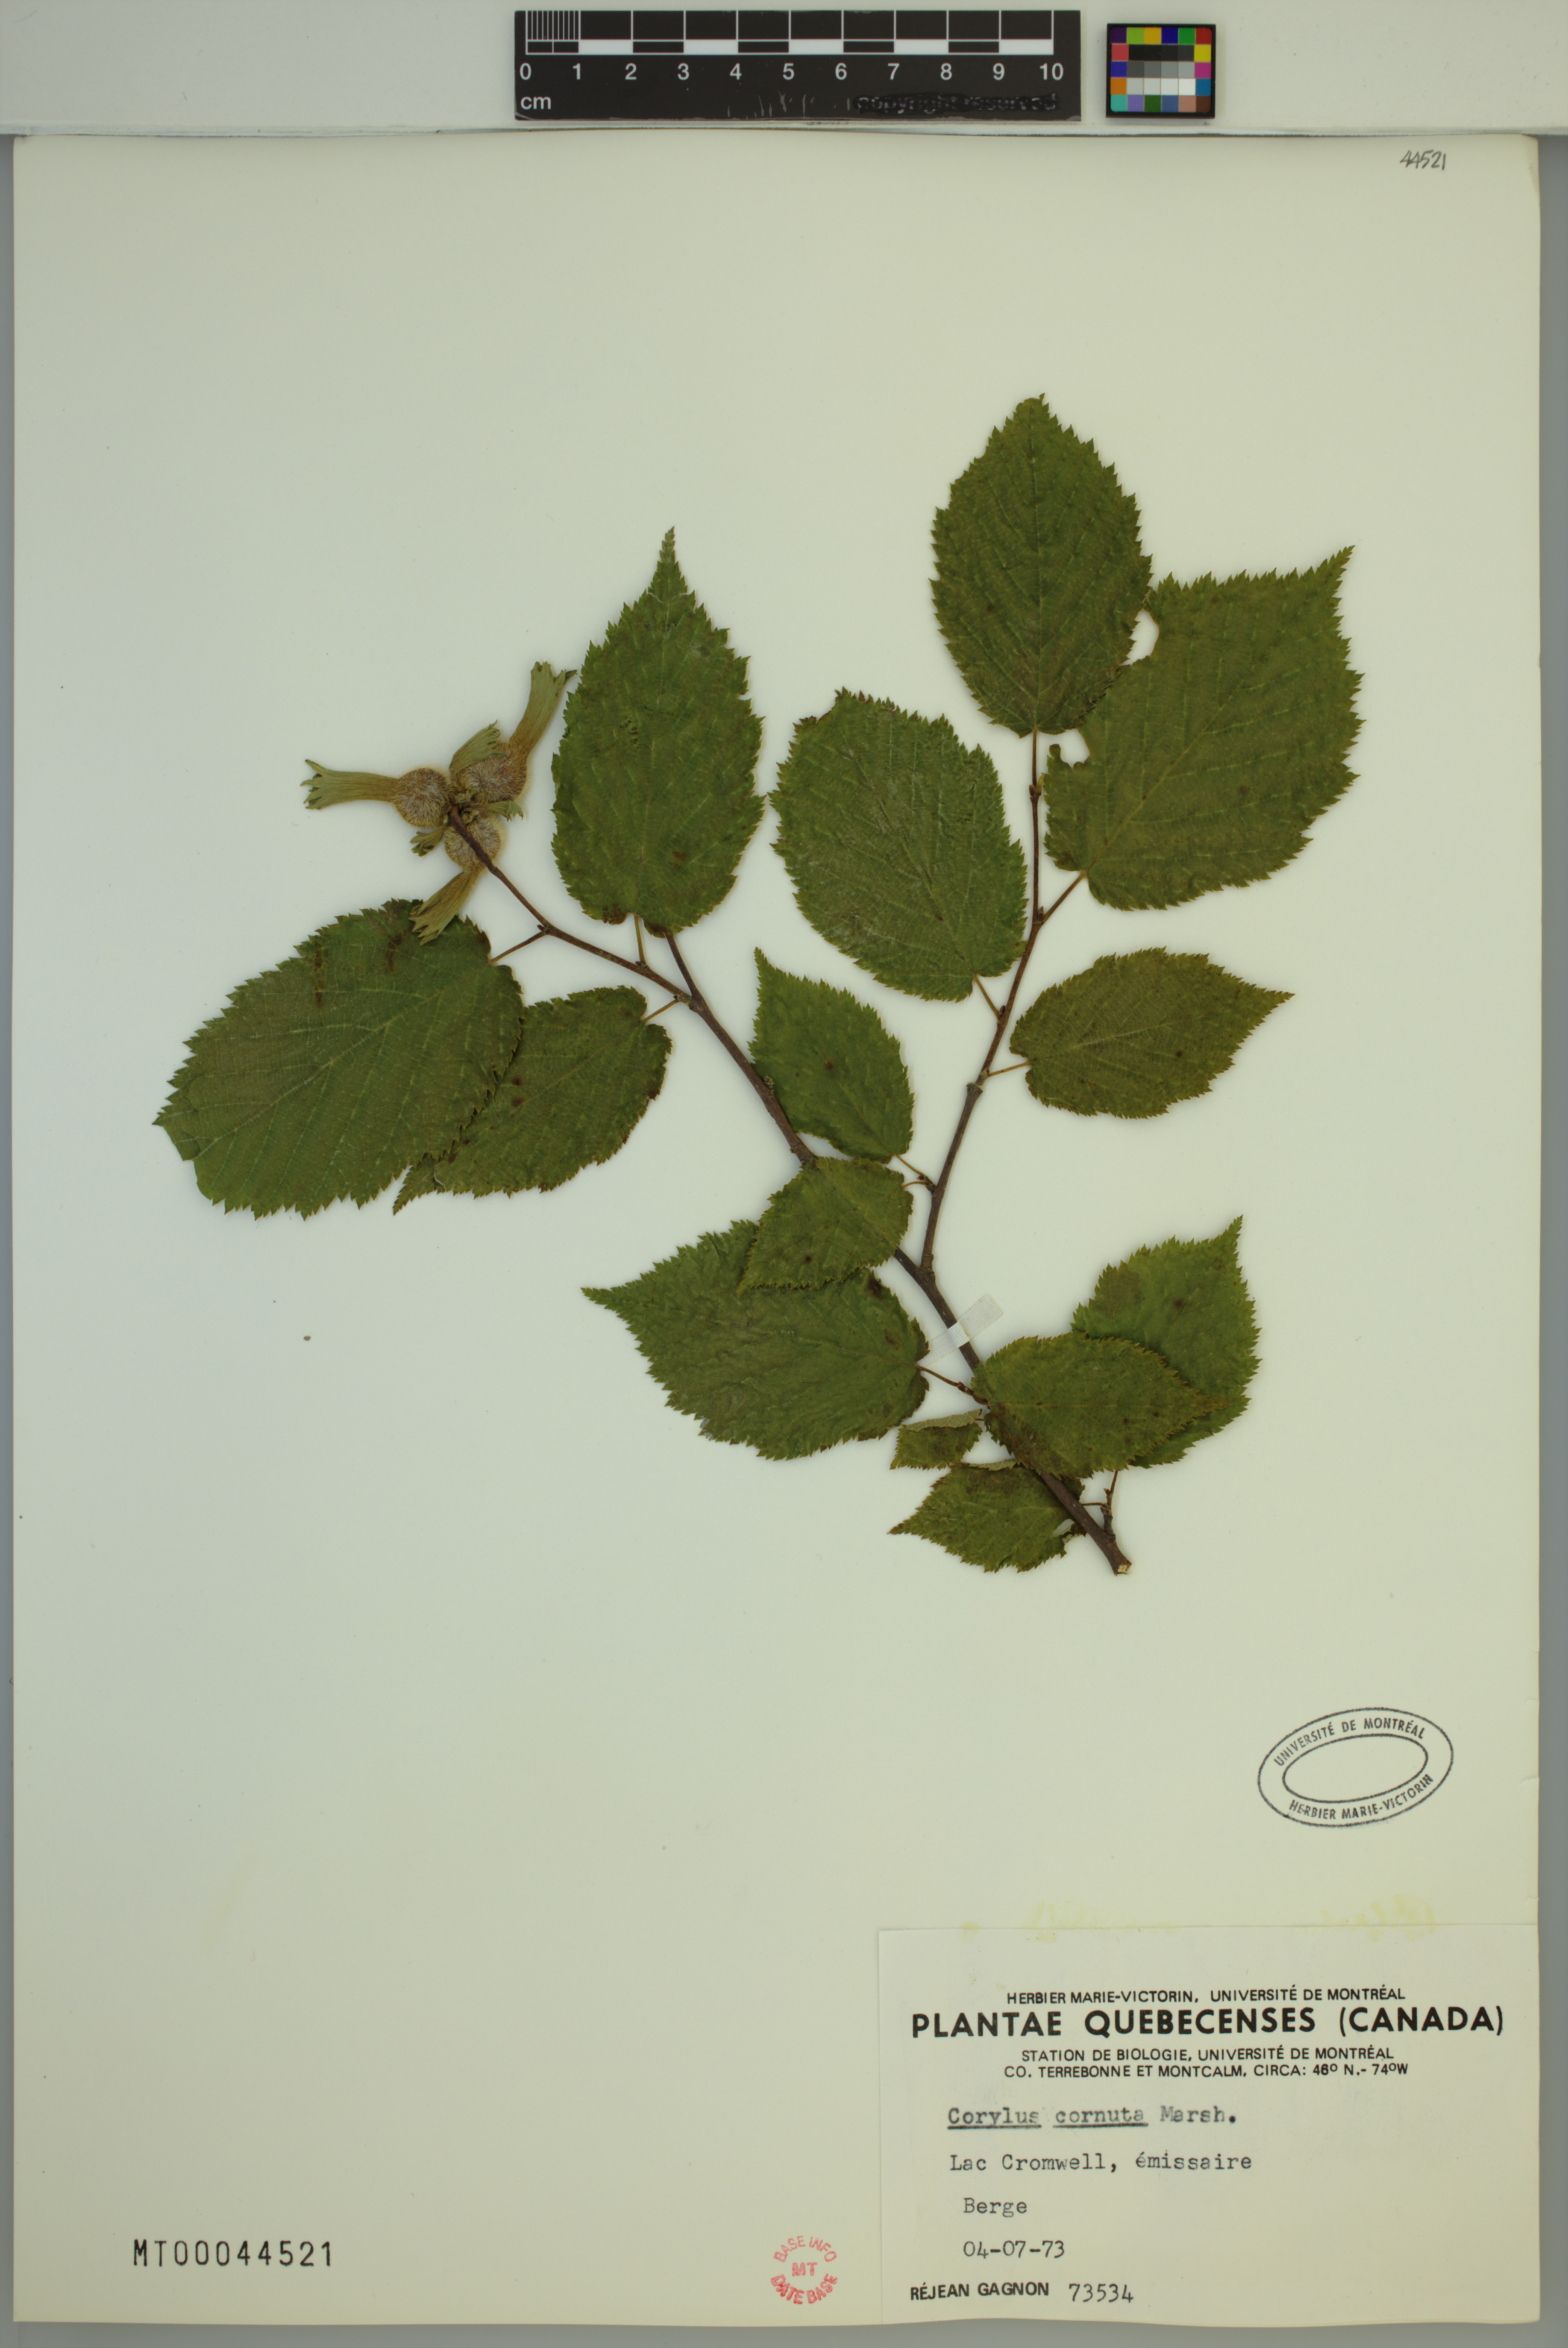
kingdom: Plantae
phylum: Tracheophyta
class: Magnoliopsida
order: Fagales
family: Betulaceae
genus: Corylus
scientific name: Corylus cornuta
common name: Beaked hazel
